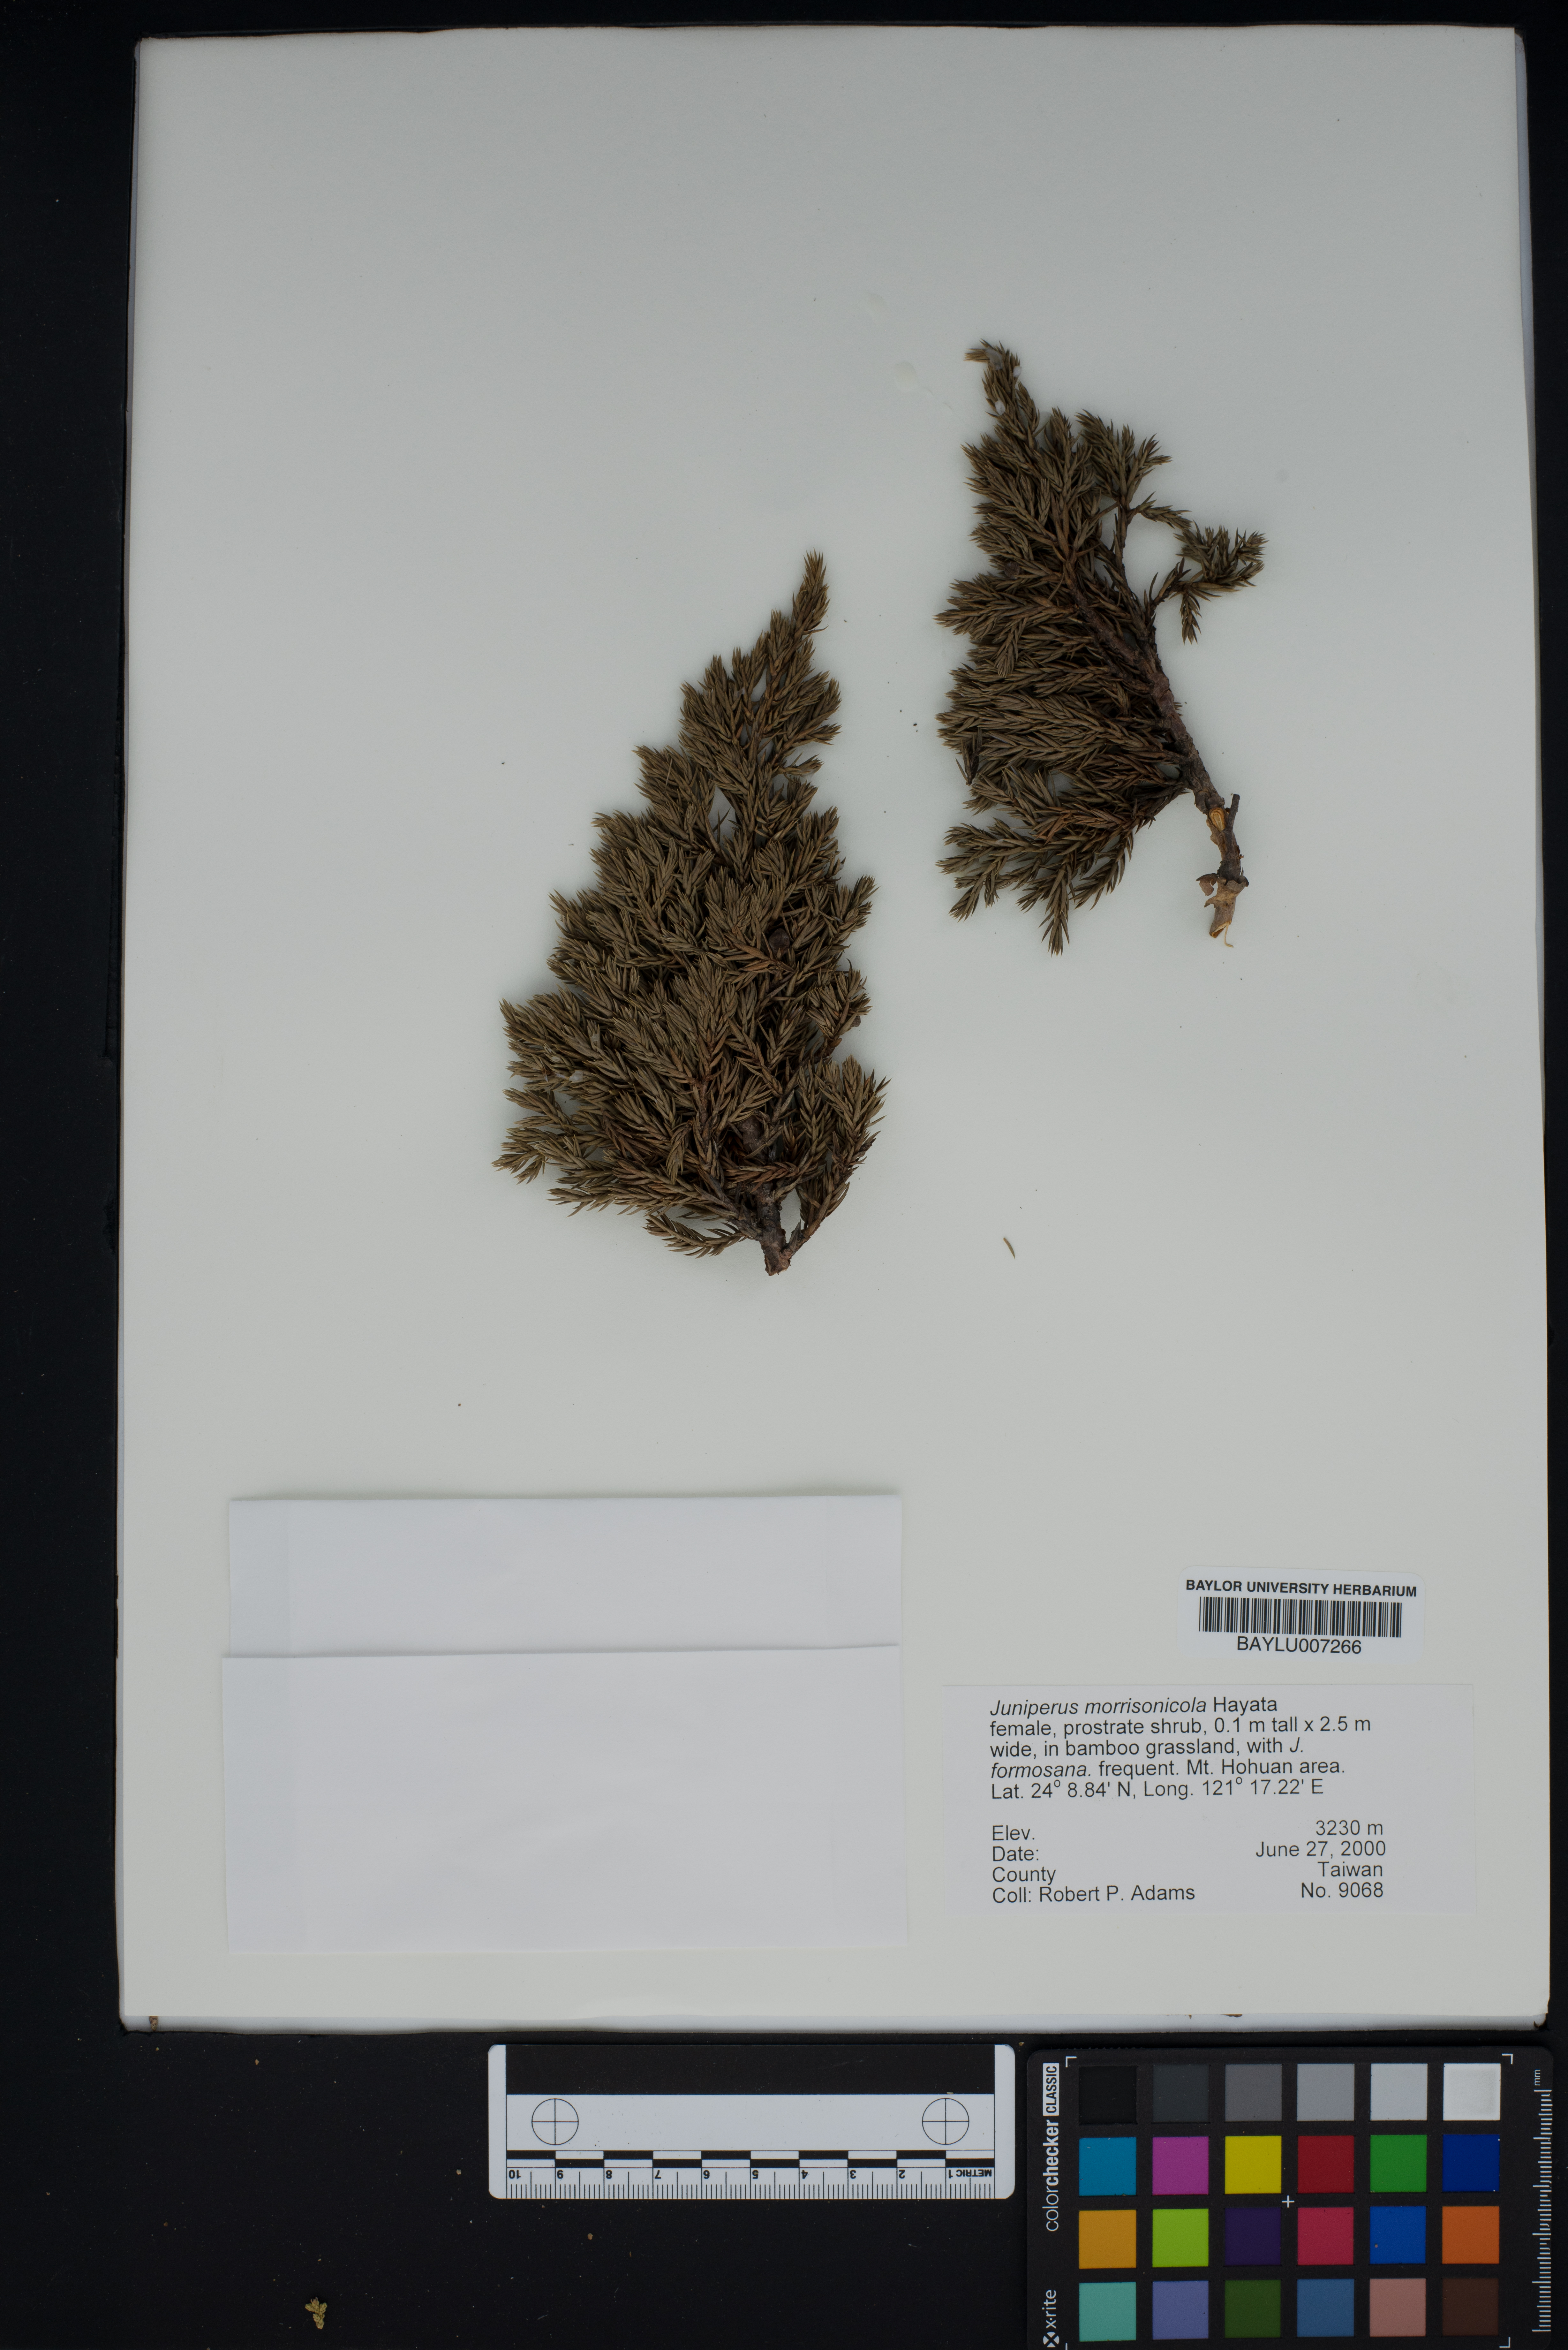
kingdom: Plantae
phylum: Tracheophyta
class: Pinopsida
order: Pinales
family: Cupressaceae
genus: Juniperus
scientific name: Juniperus squamata
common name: Flaky juniper
